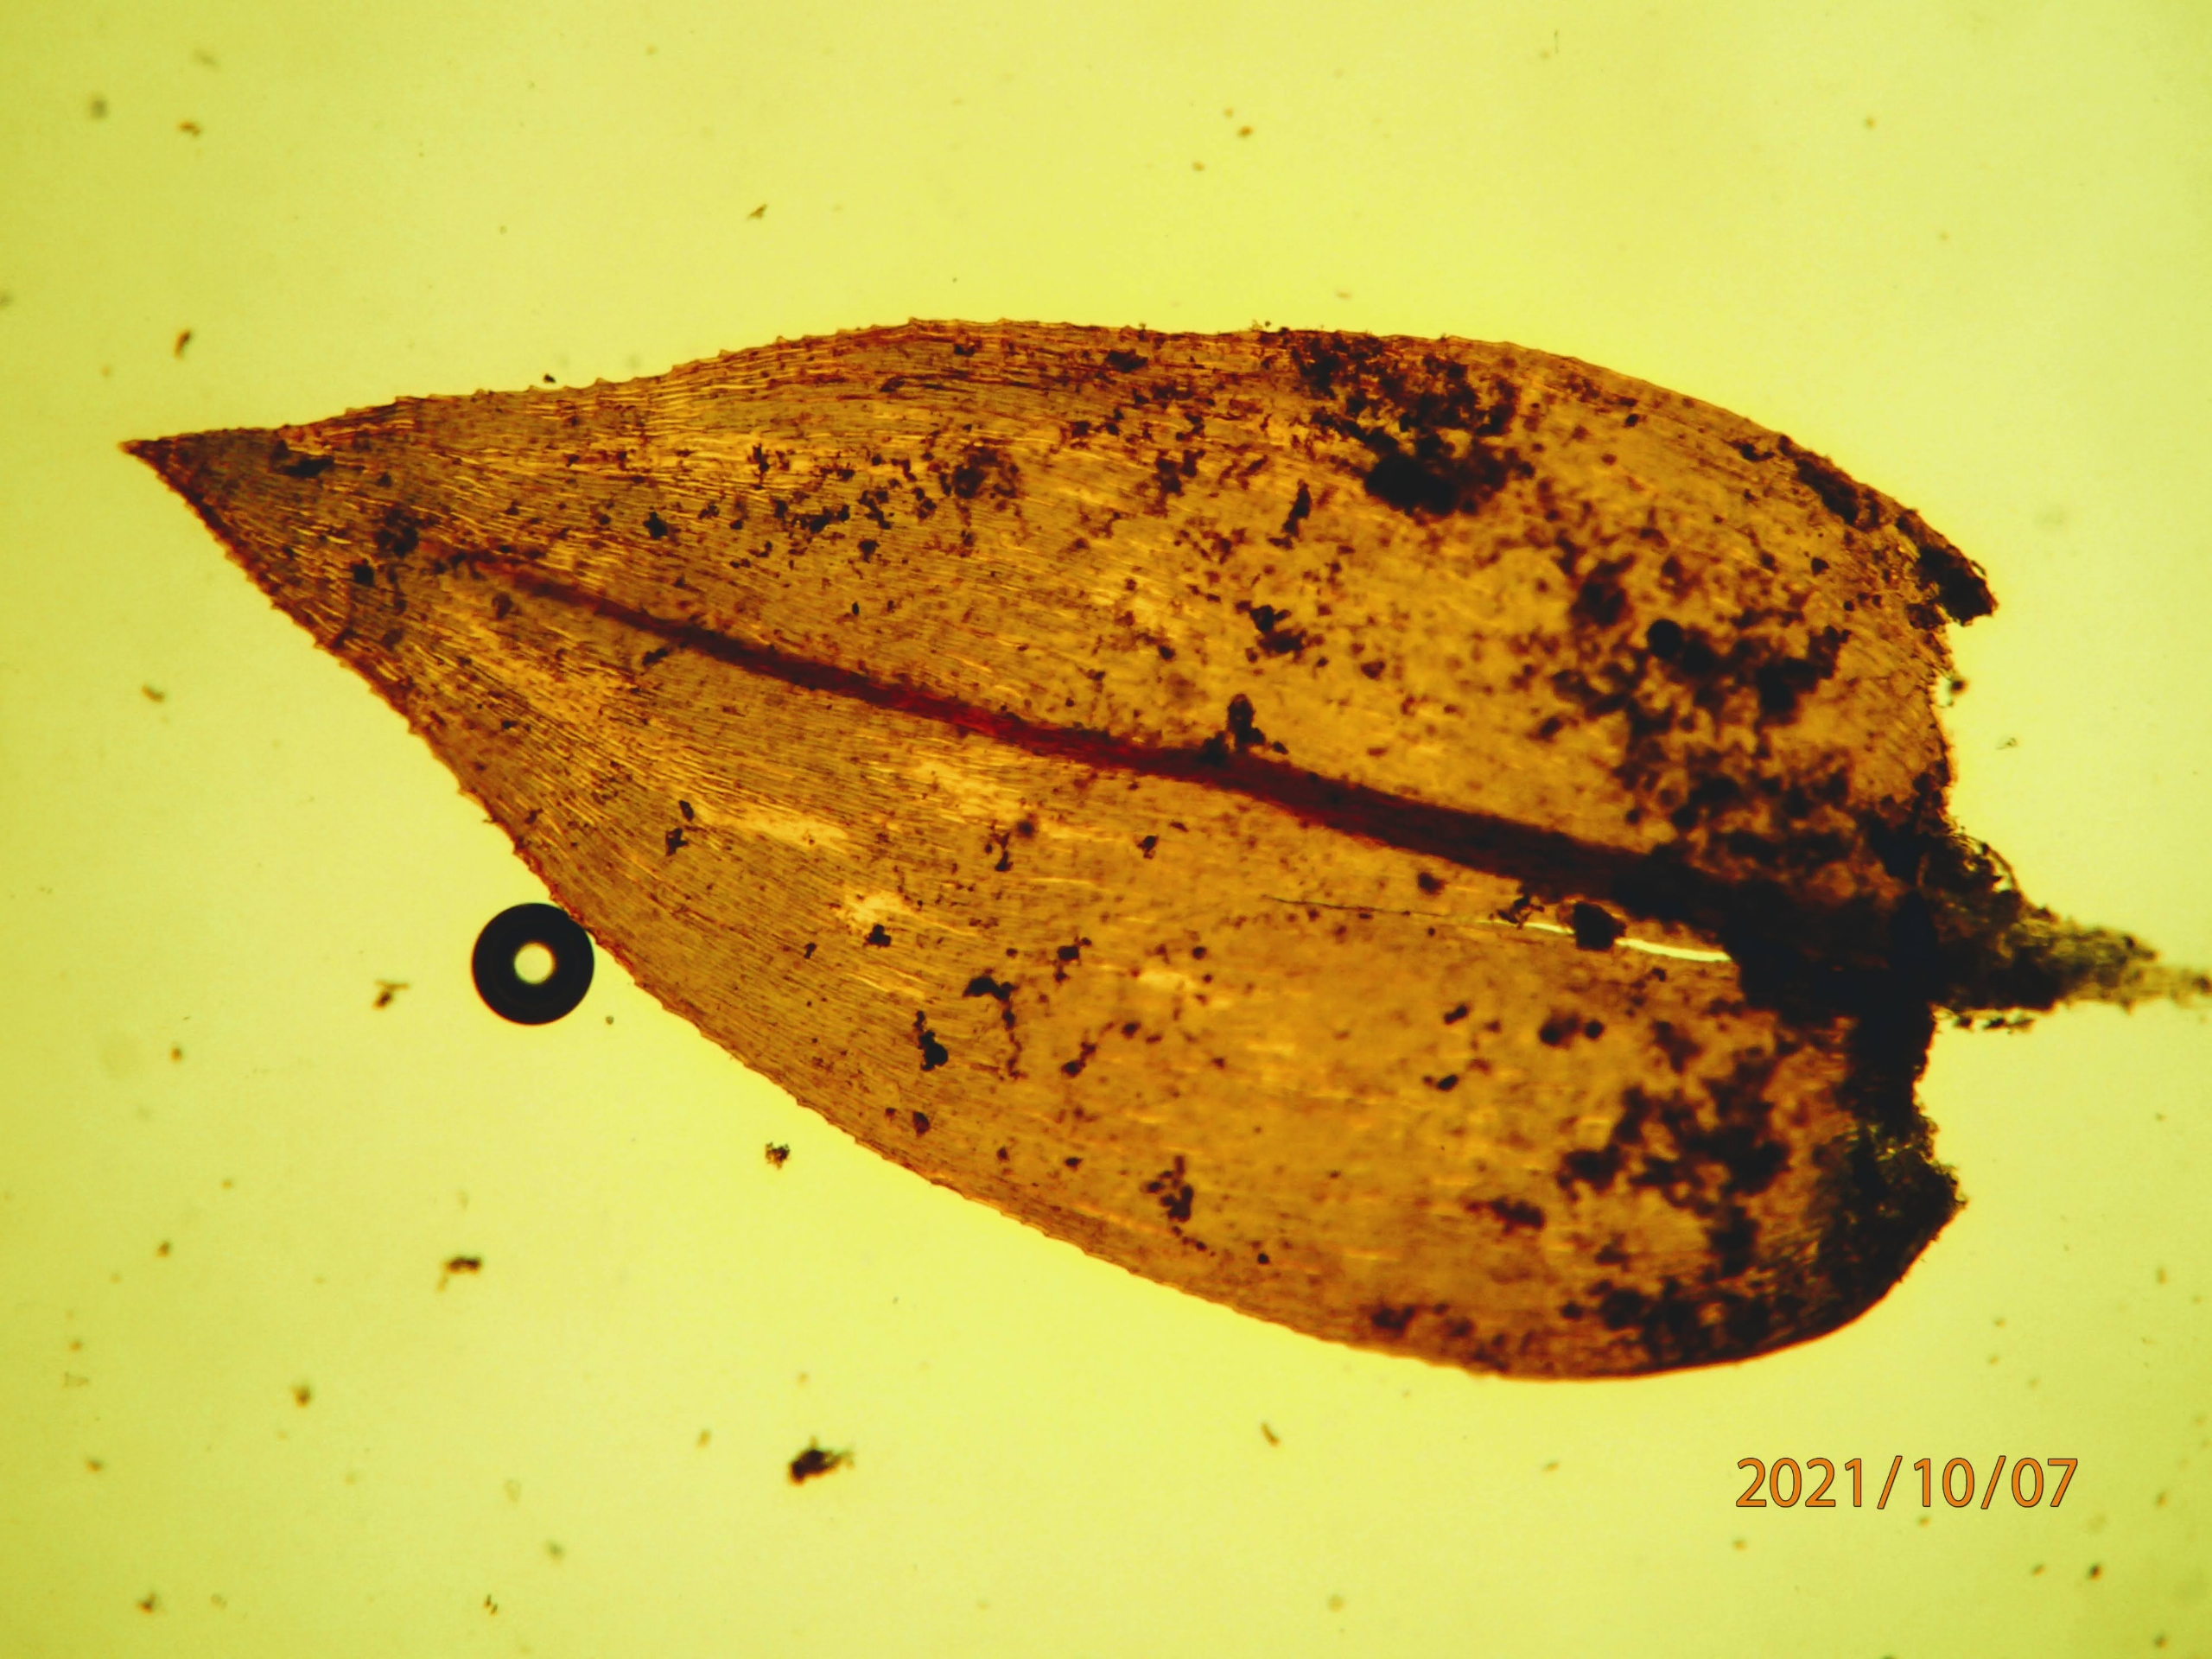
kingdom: Plantae
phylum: Bryophyta
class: Bryopsida
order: Hypnales
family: Brachytheciaceae
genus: Rhynchostegium
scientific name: Rhynchostegium riparioides
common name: Robust strømmos
